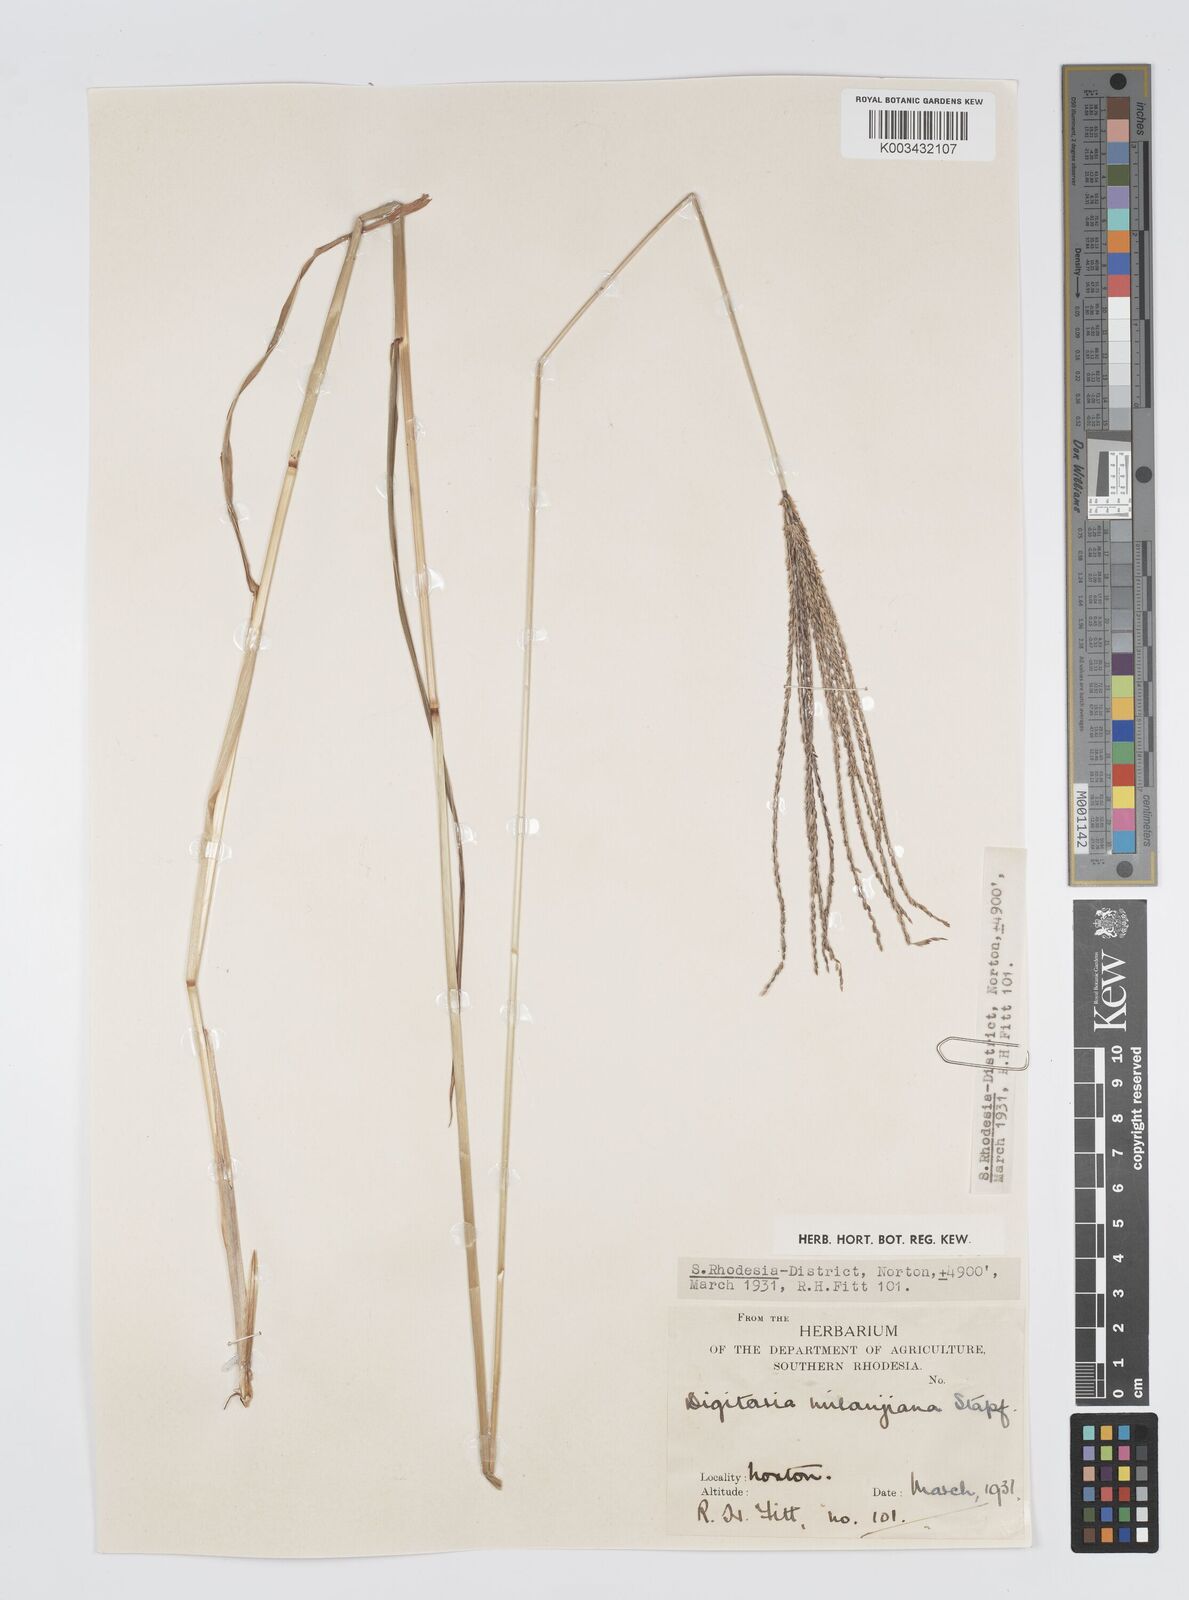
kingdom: Plantae
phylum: Tracheophyta
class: Liliopsida
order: Poales
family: Poaceae
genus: Digitaria
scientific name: Digitaria milanjiana
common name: Madagascar crabgrass
